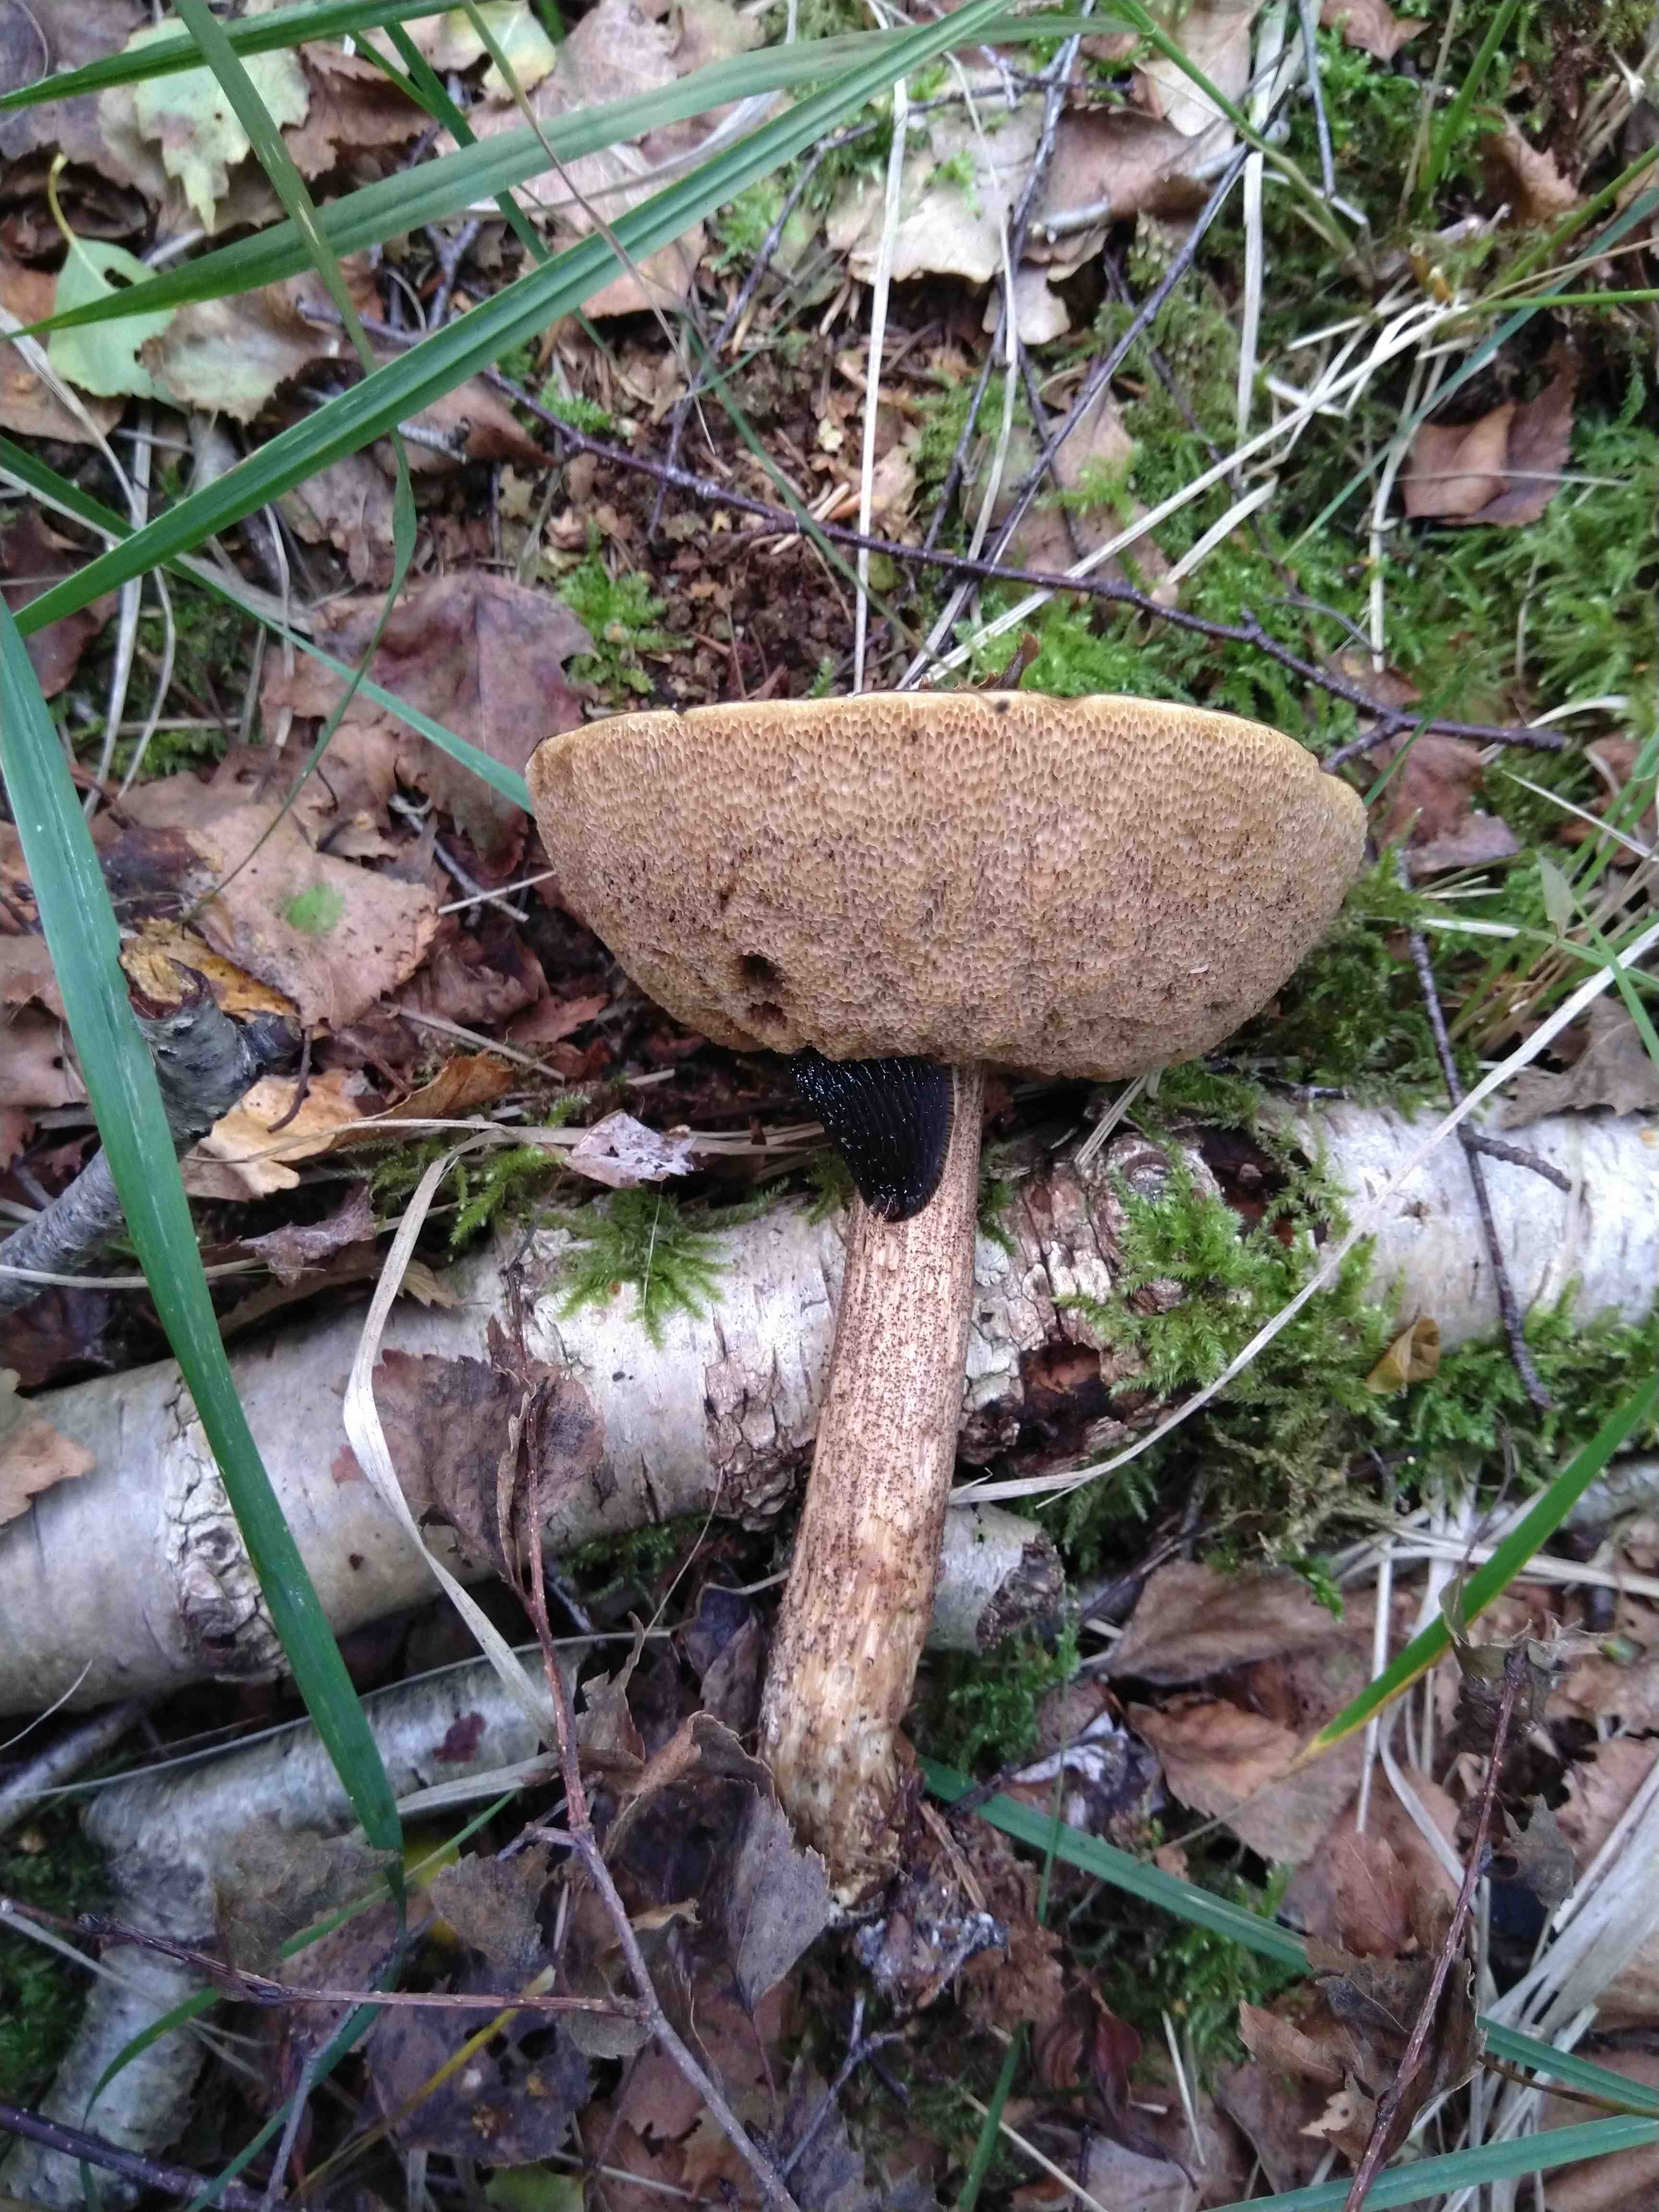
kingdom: Fungi
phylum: Basidiomycota
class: Agaricomycetes
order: Boletales
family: Boletaceae
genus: Leccinum
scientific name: Leccinum scabrum
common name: brun skælrørhat
